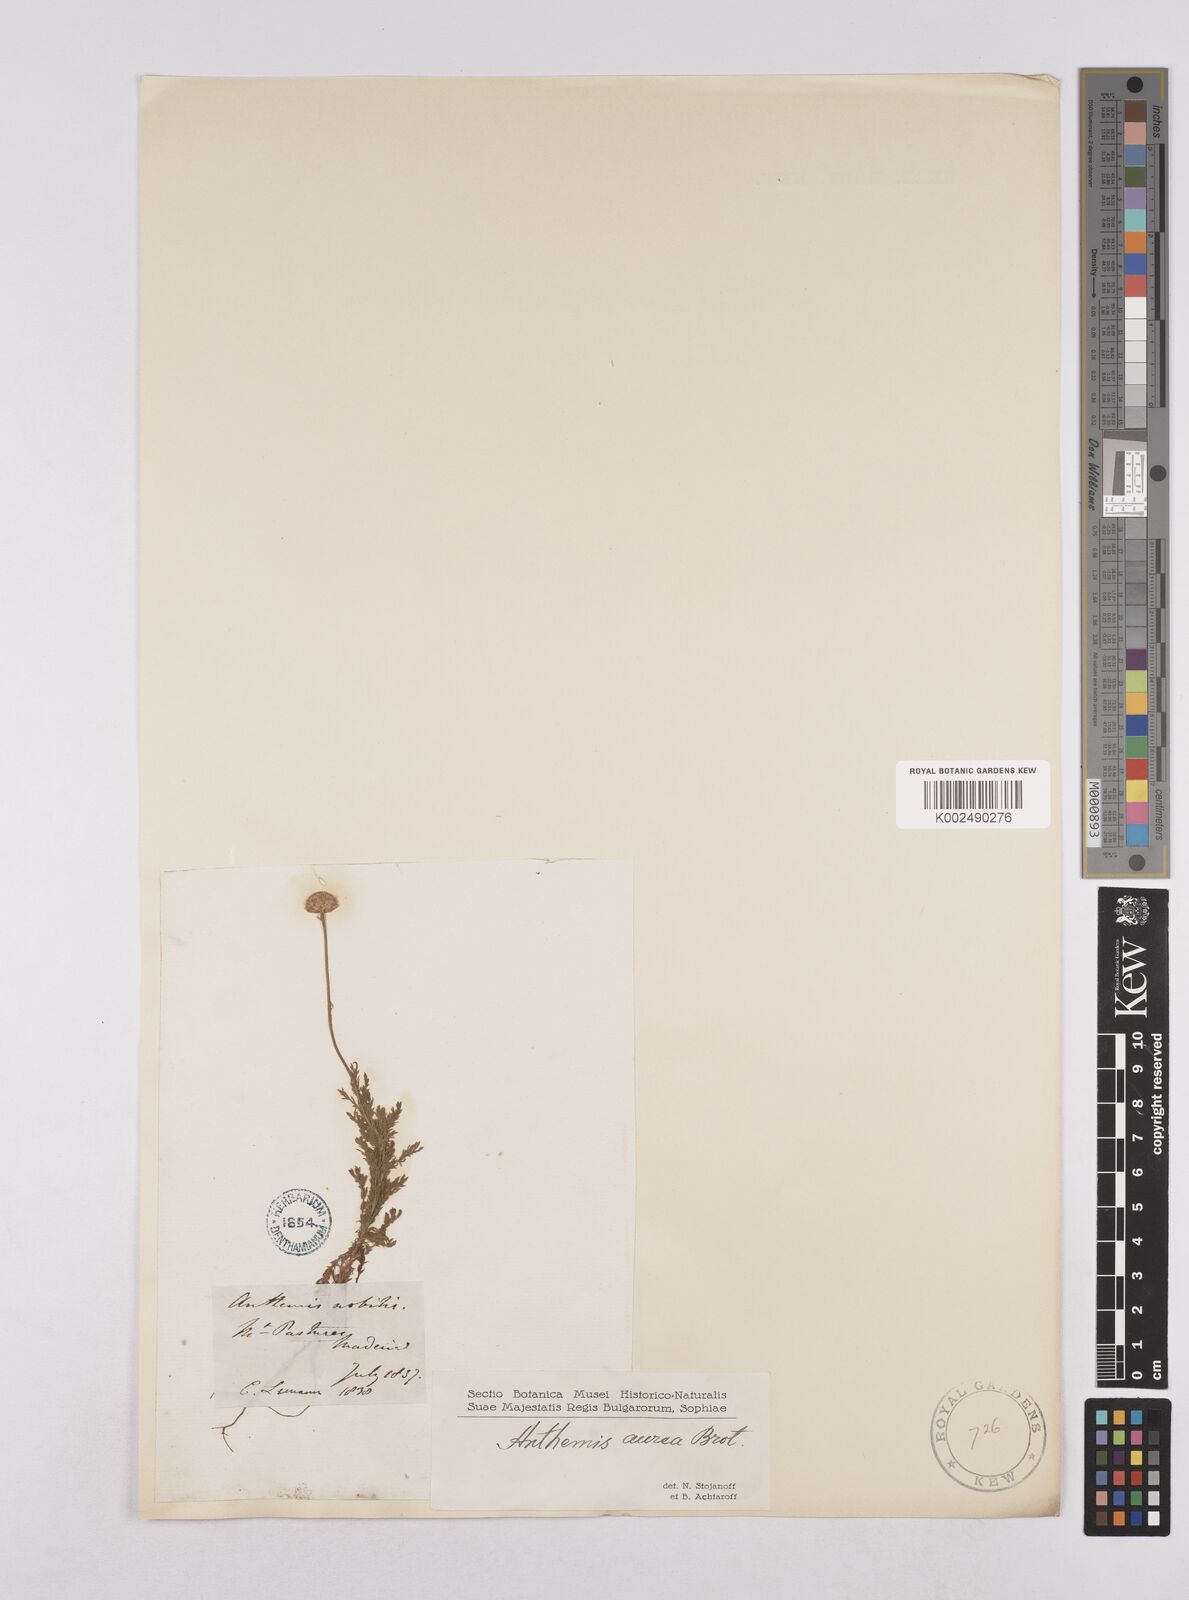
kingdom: Plantae
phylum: Tracheophyta
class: Magnoliopsida
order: Asterales
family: Asteraceae
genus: Cota
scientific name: Cota tinctoria
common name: Golden chamomile
